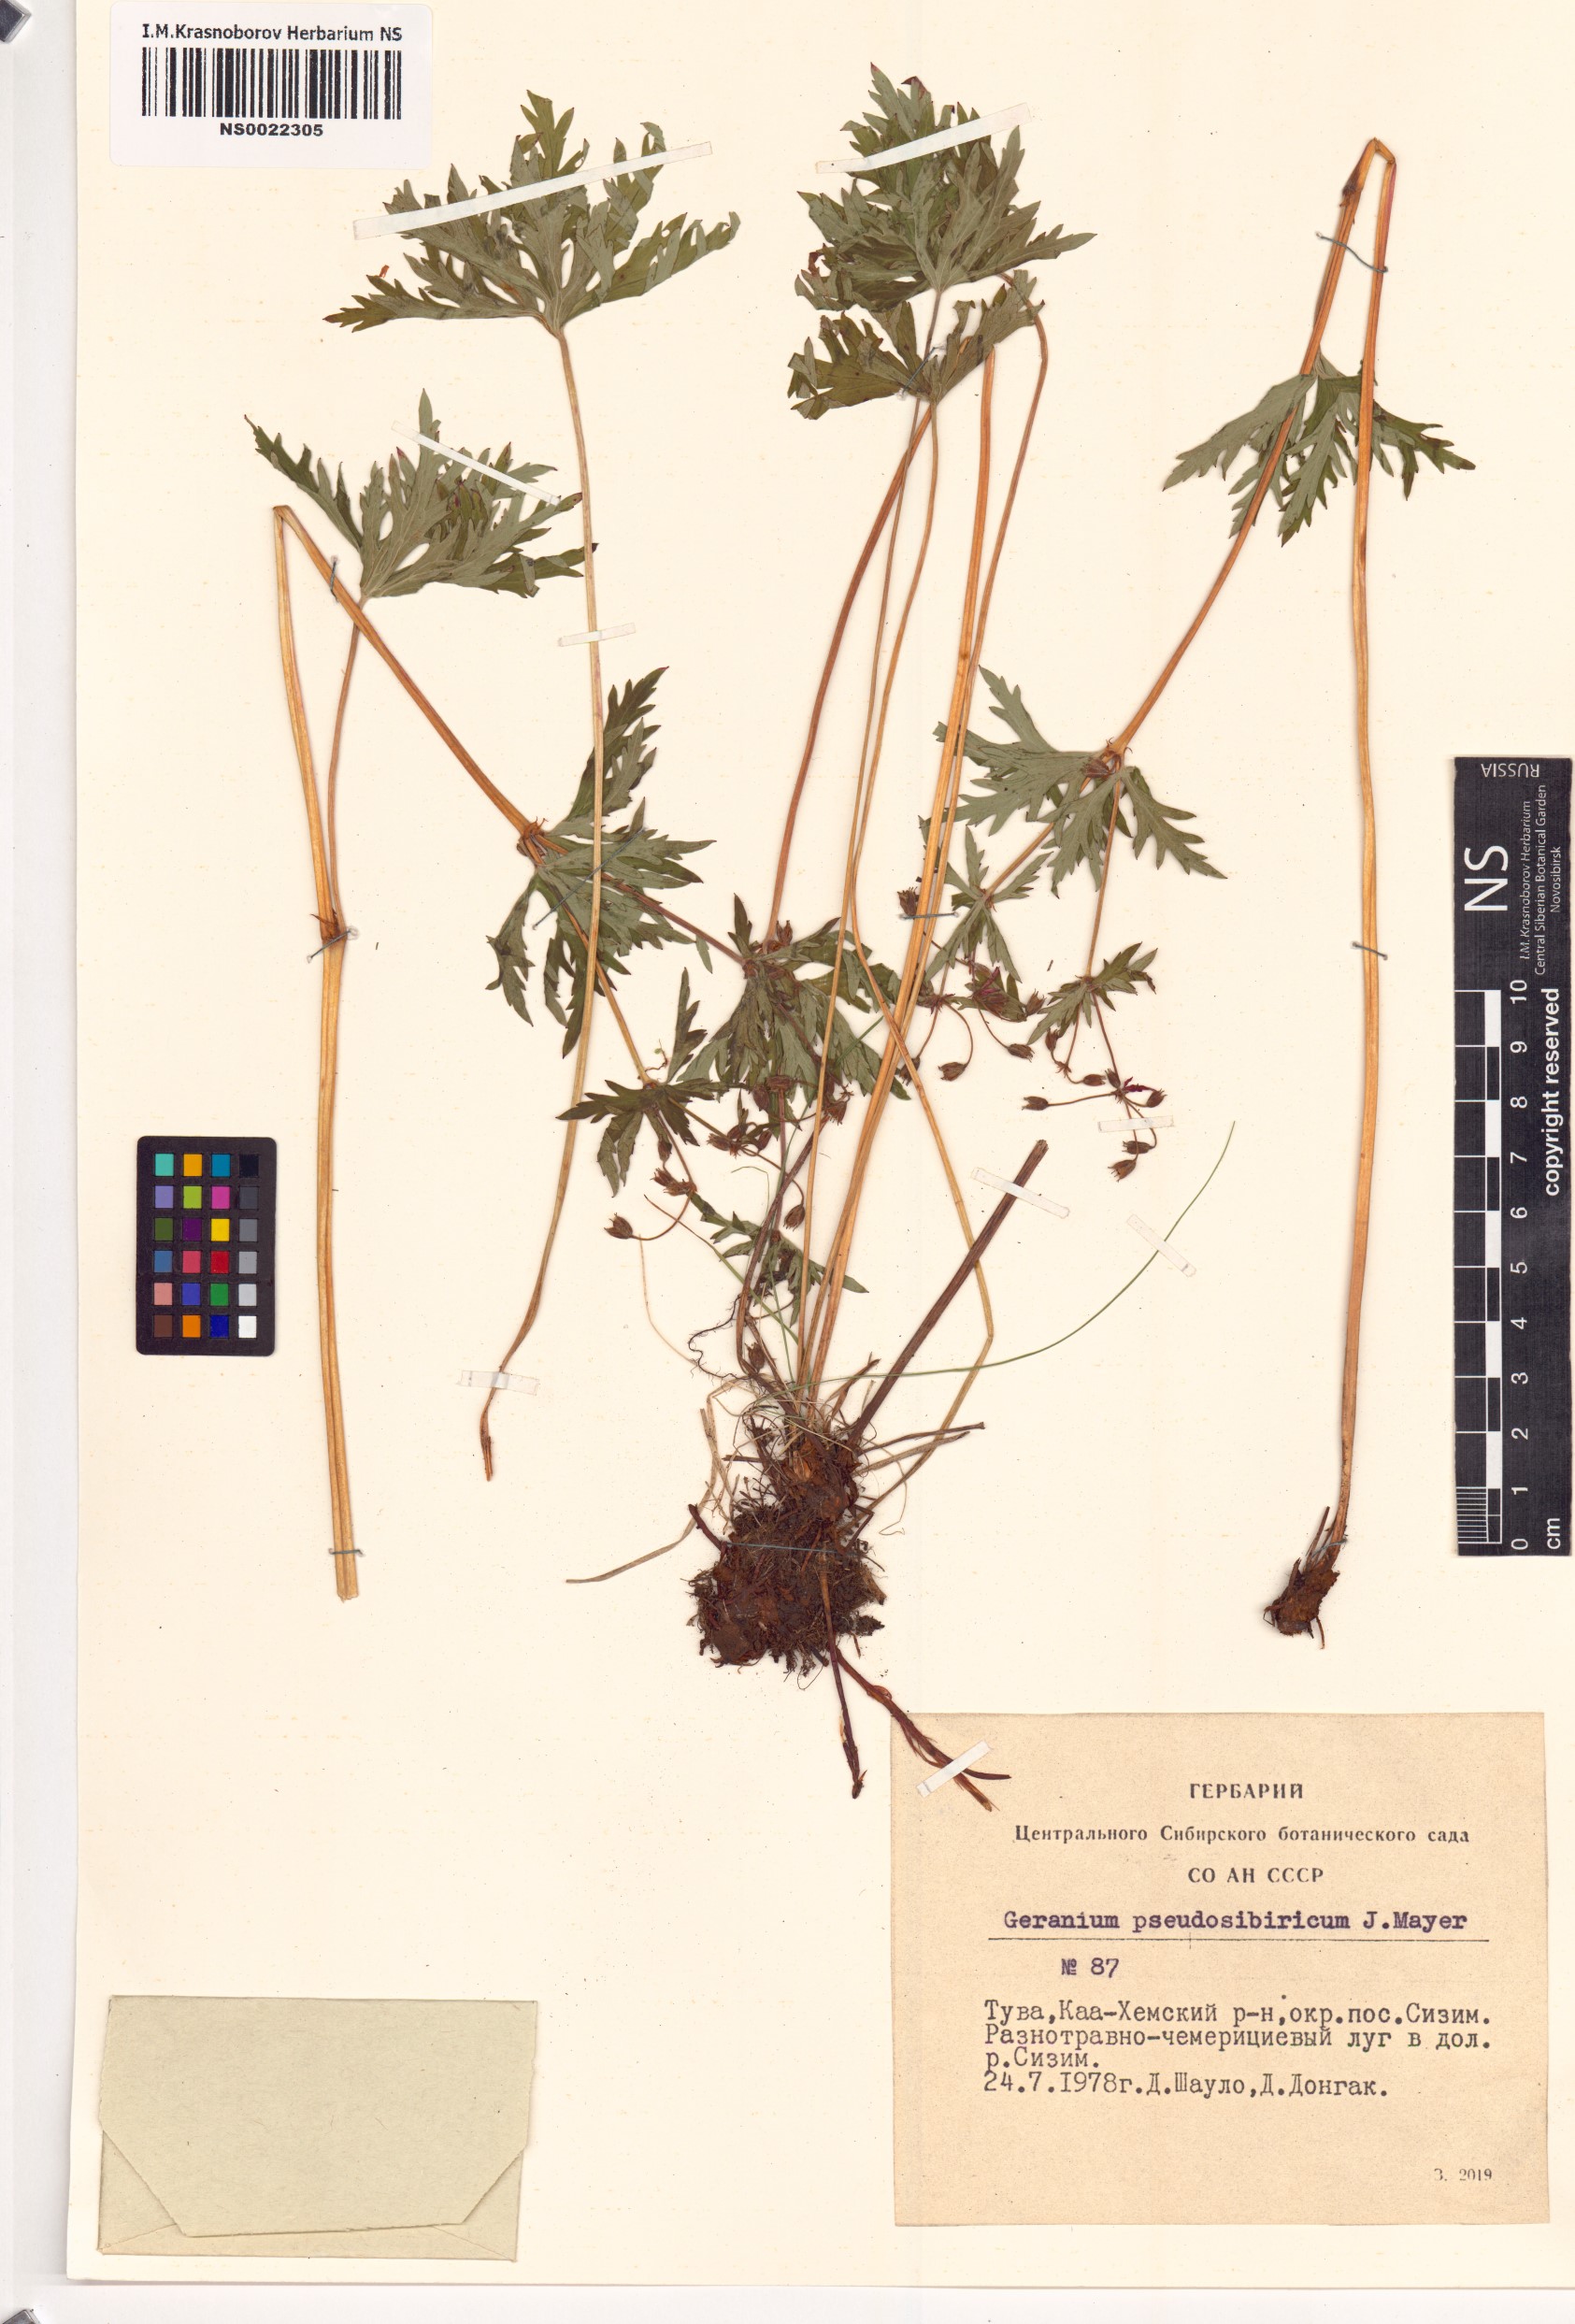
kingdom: Plantae
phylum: Tracheophyta
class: Magnoliopsida
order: Geraniales
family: Geraniaceae
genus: Geranium
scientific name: Geranium pseudosibiricum
